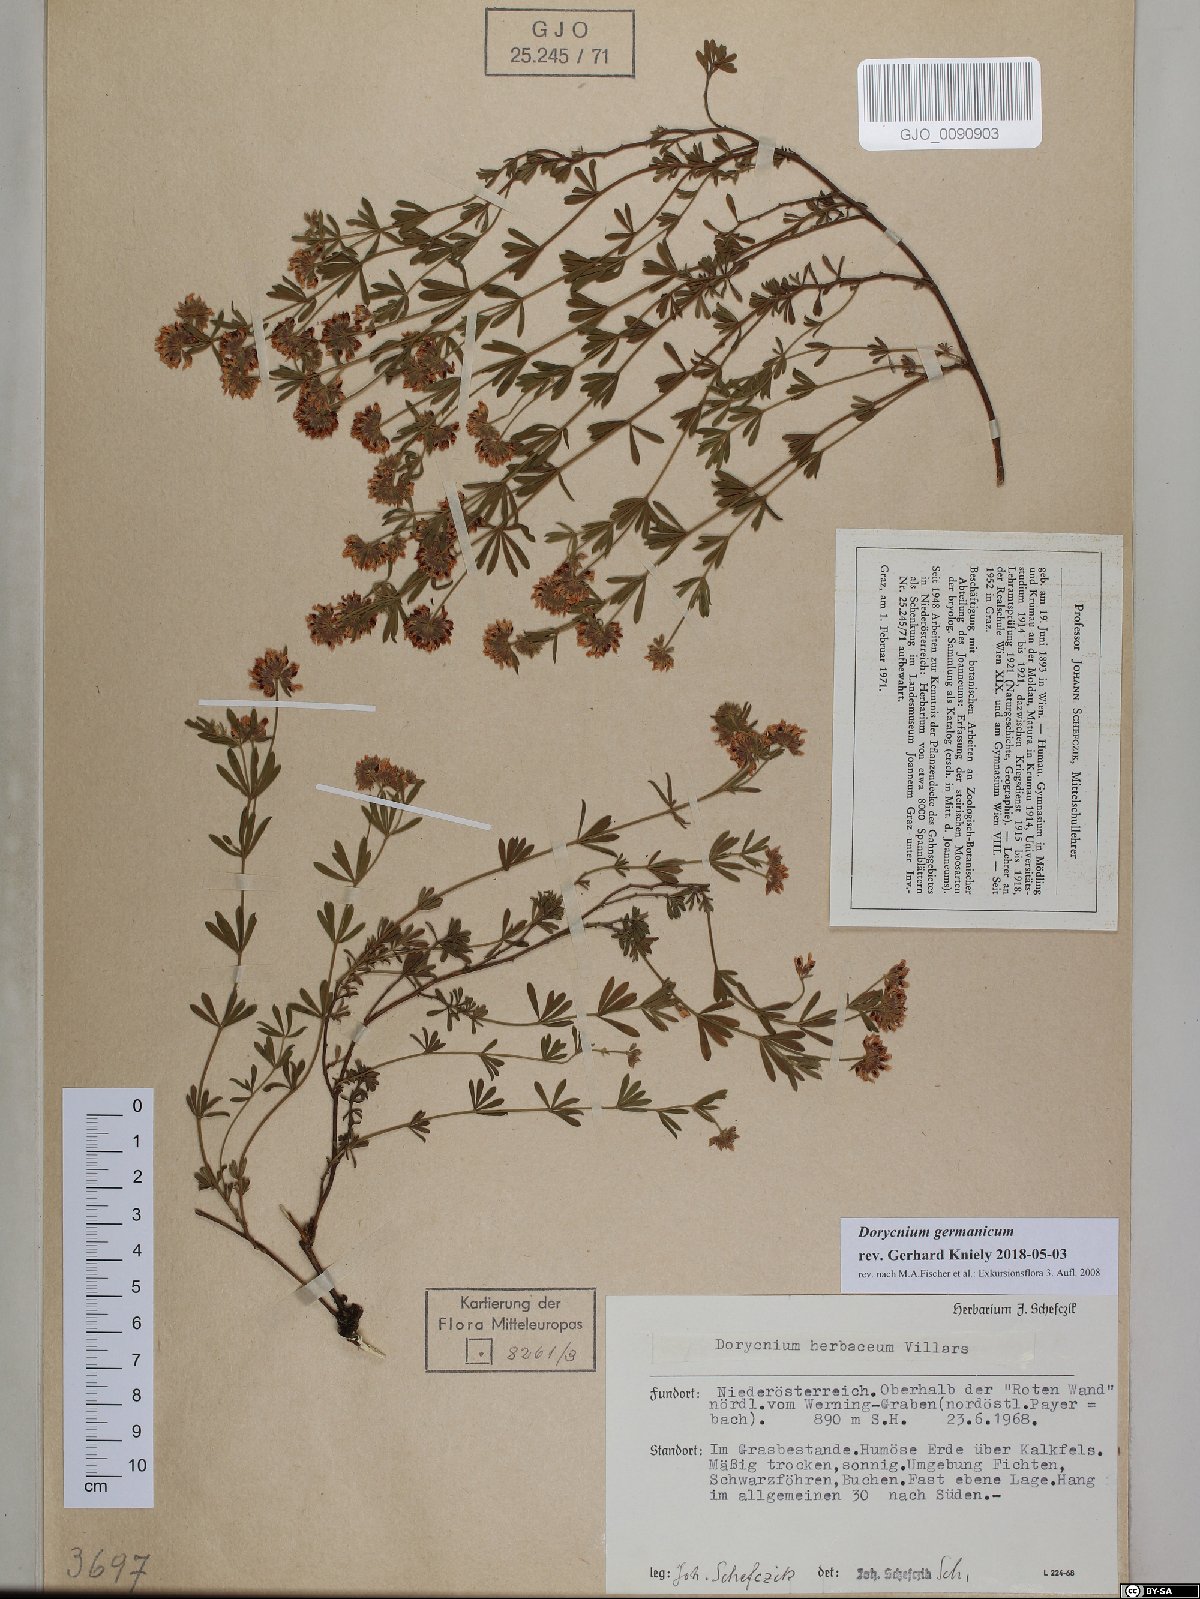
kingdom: Plantae
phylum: Tracheophyta
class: Magnoliopsida
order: Fabales
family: Fabaceae
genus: Lotus
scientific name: Lotus germanicus
